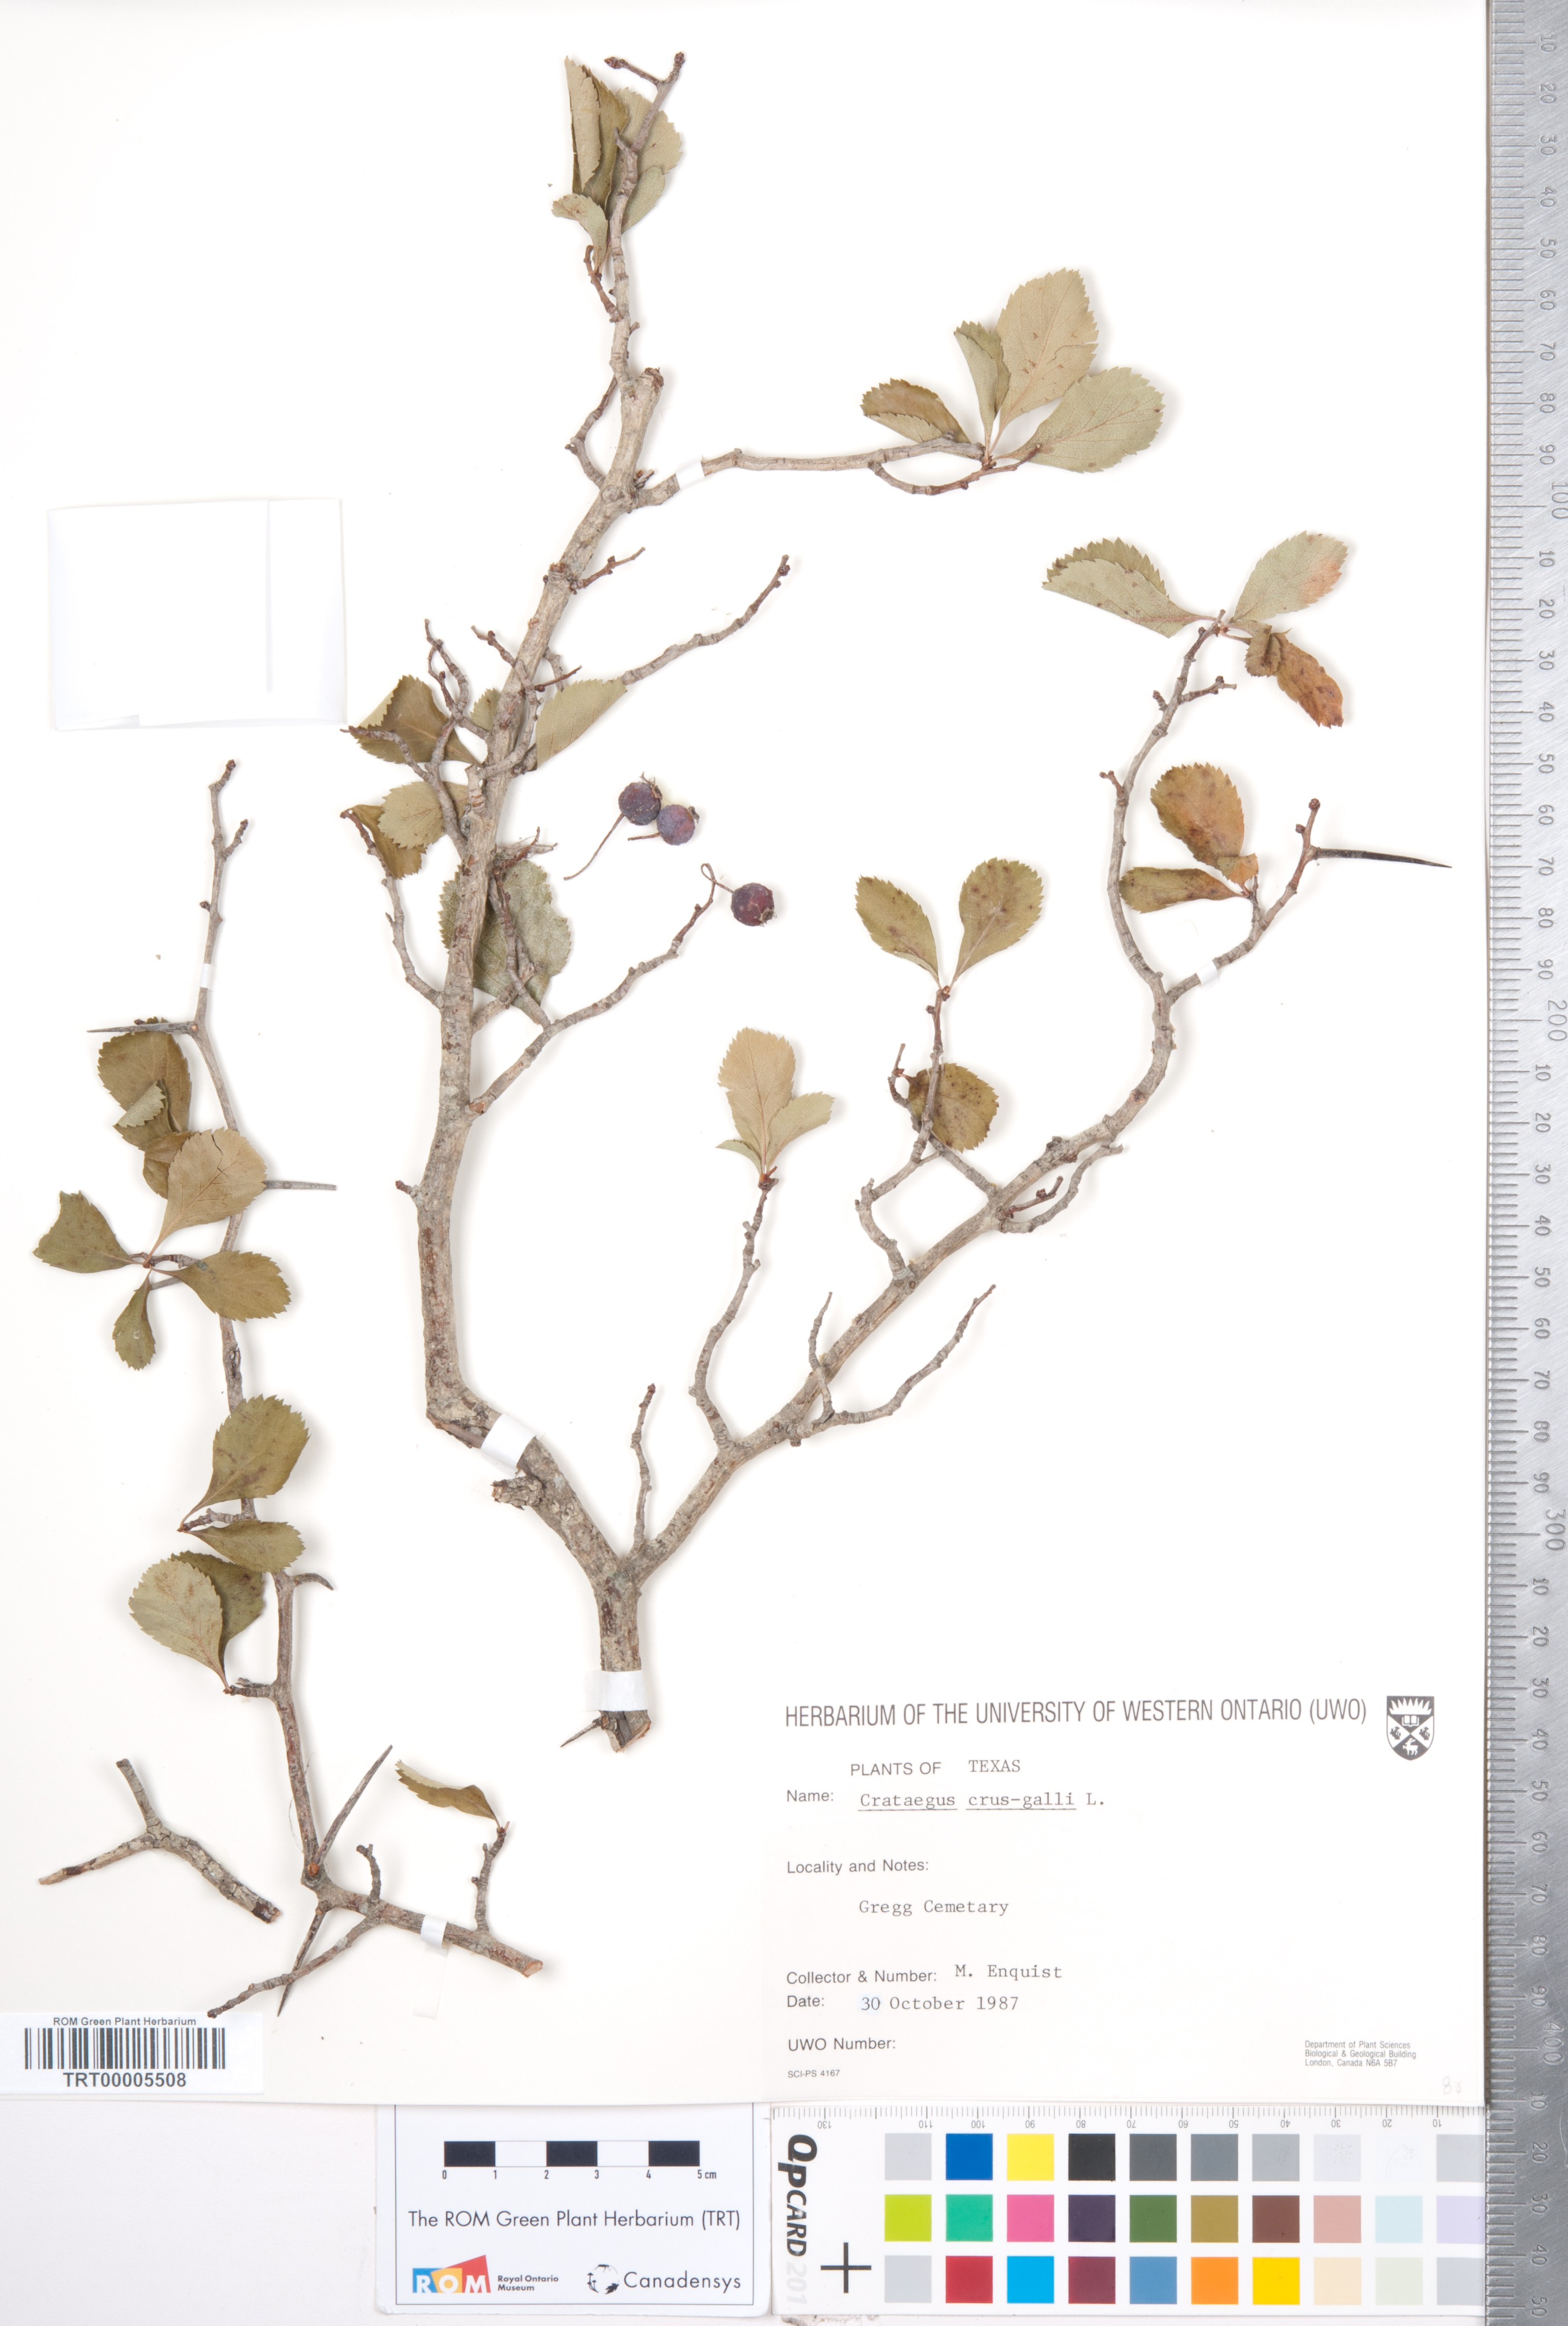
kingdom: Plantae
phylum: Tracheophyta
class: Magnoliopsida
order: Rosales
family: Rosaceae
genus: Crataegus
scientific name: Crataegus crus-galli
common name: Cockspurthorn
